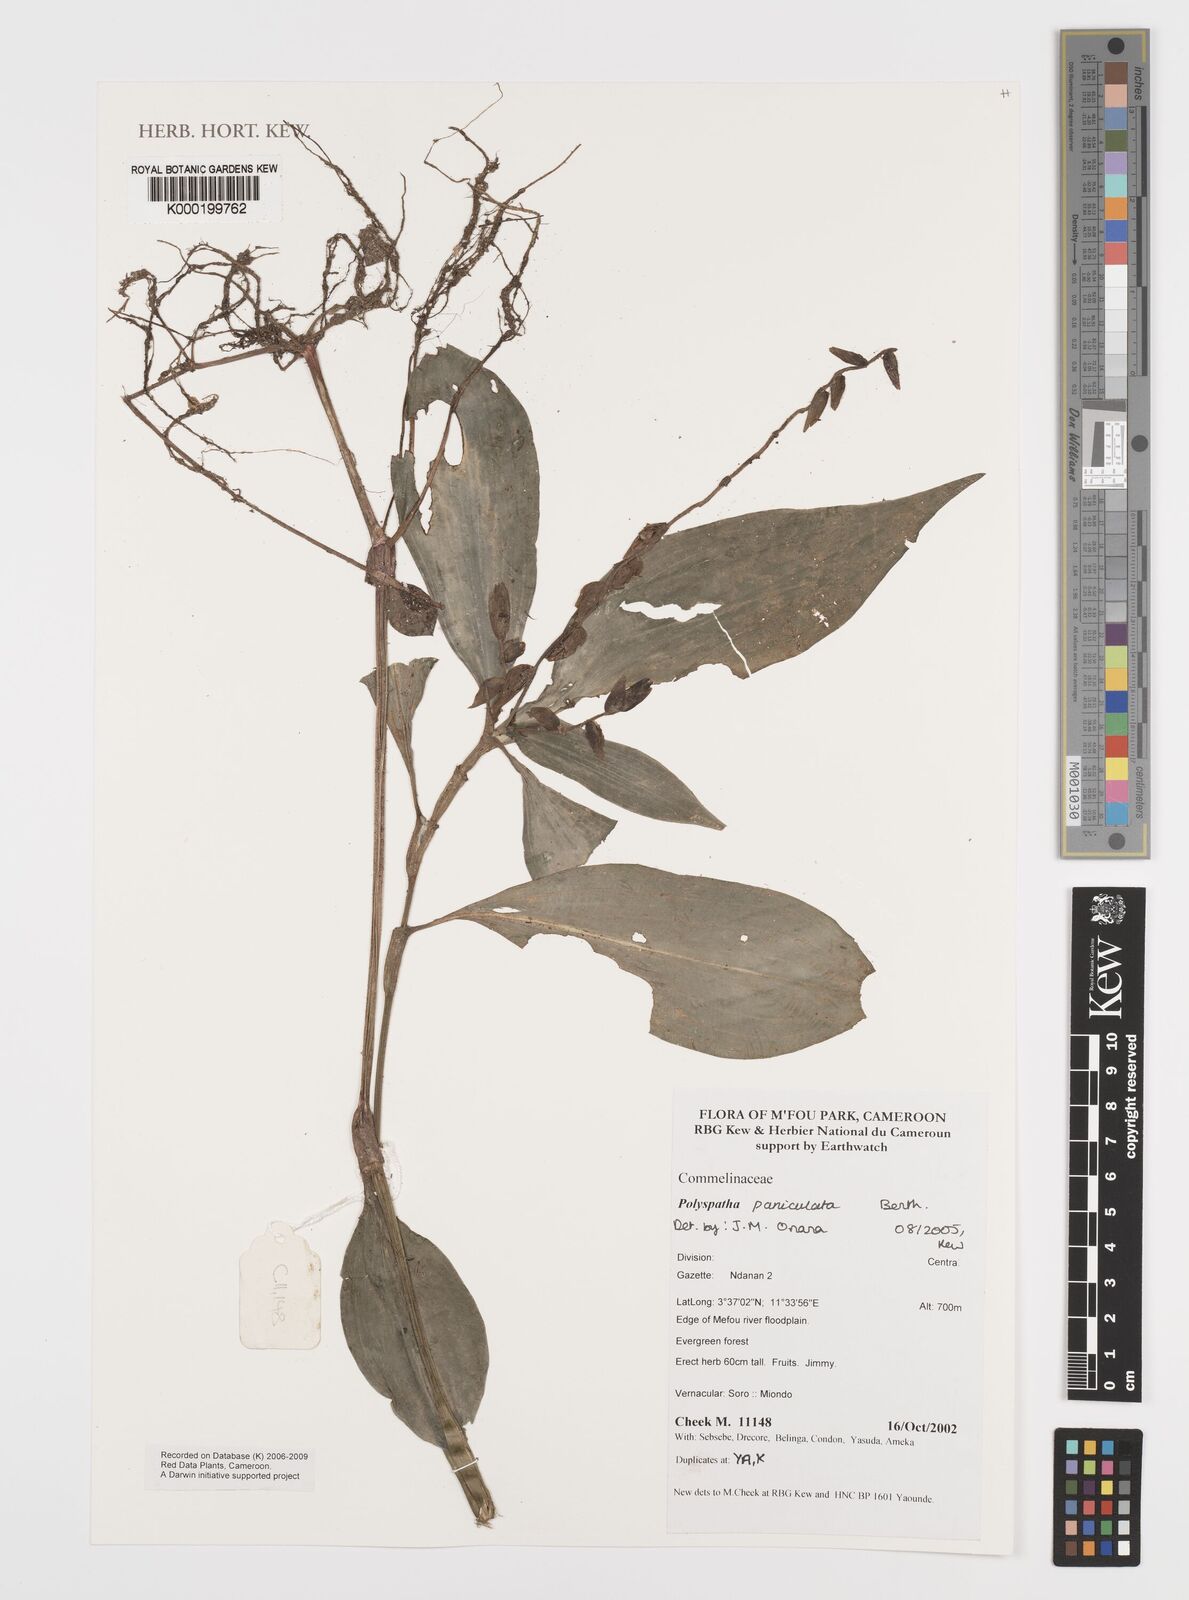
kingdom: Plantae
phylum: Tracheophyta
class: Liliopsida
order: Commelinales
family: Commelinaceae
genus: Polyspatha
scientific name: Polyspatha paniculata
